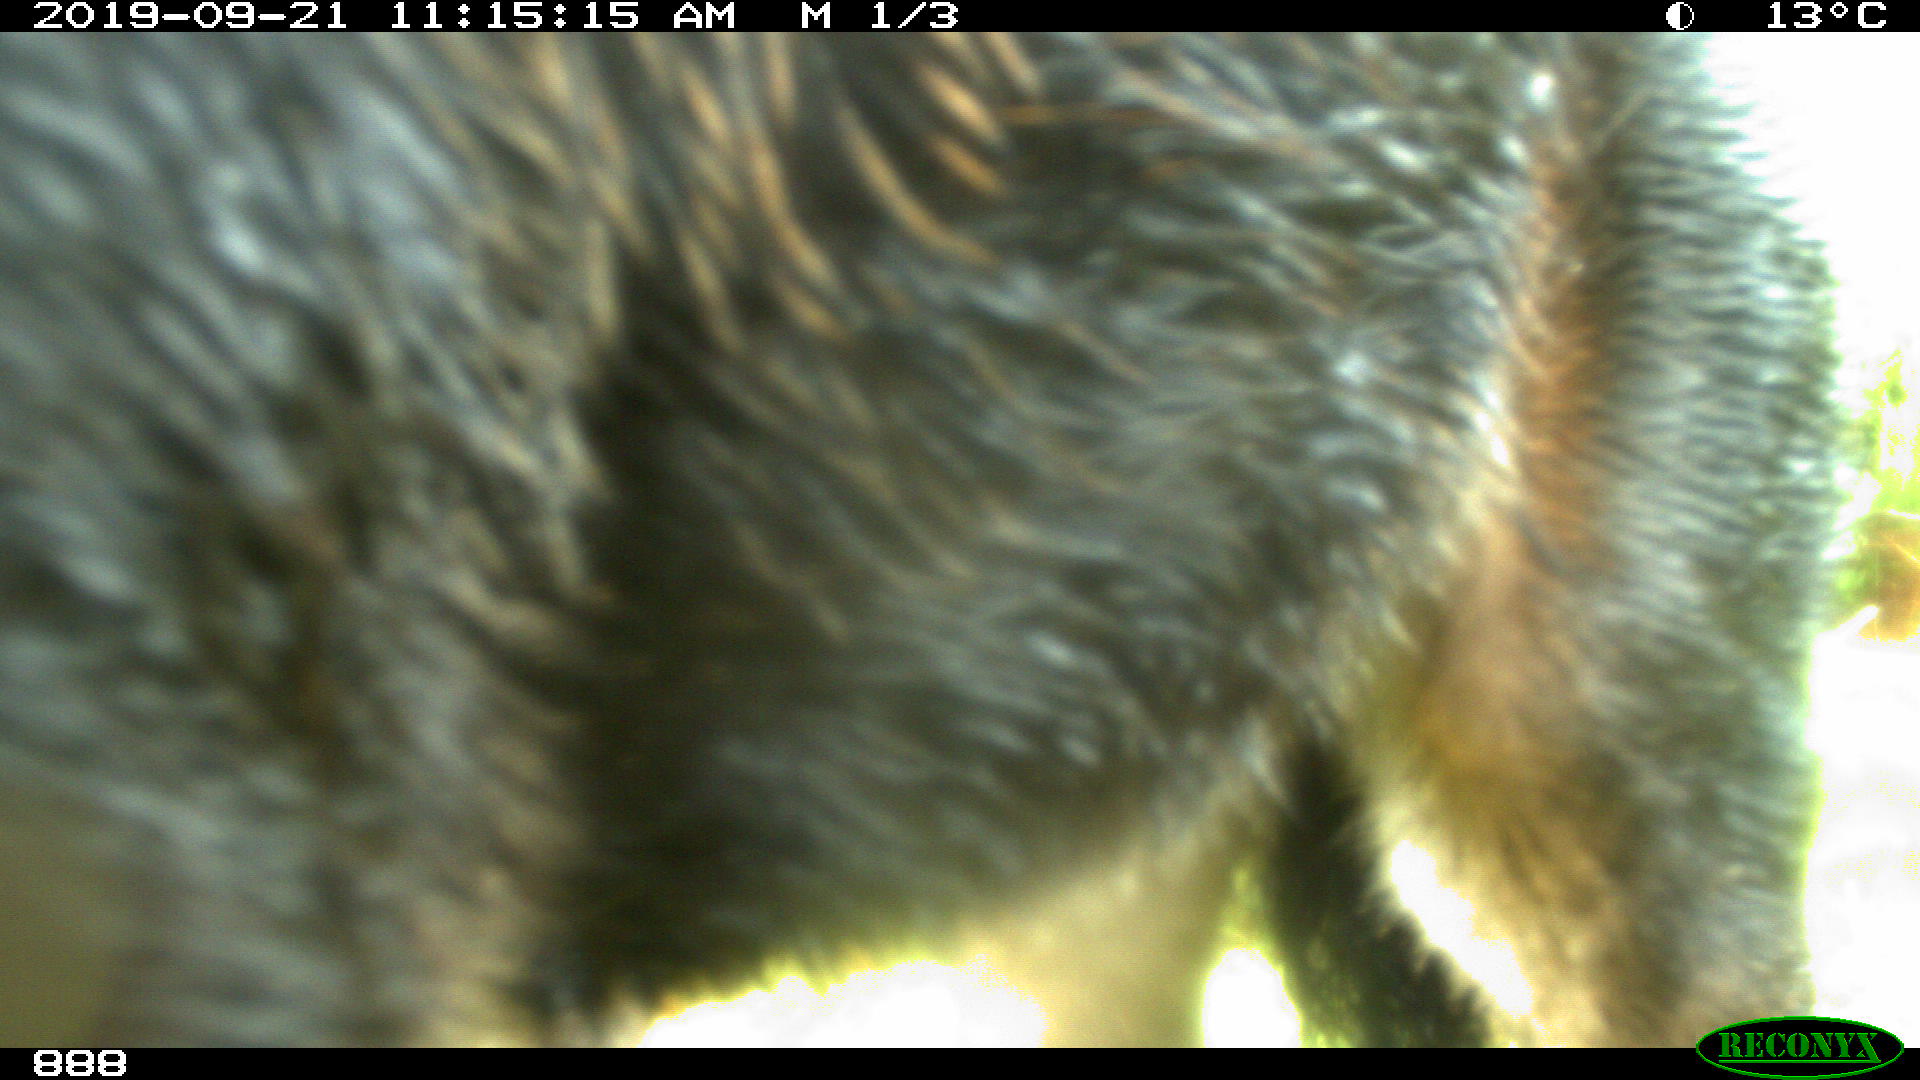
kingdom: Animalia
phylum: Chordata
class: Mammalia
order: Perissodactyla
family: Equidae
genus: Equus
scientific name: Equus caballus
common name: Horse
